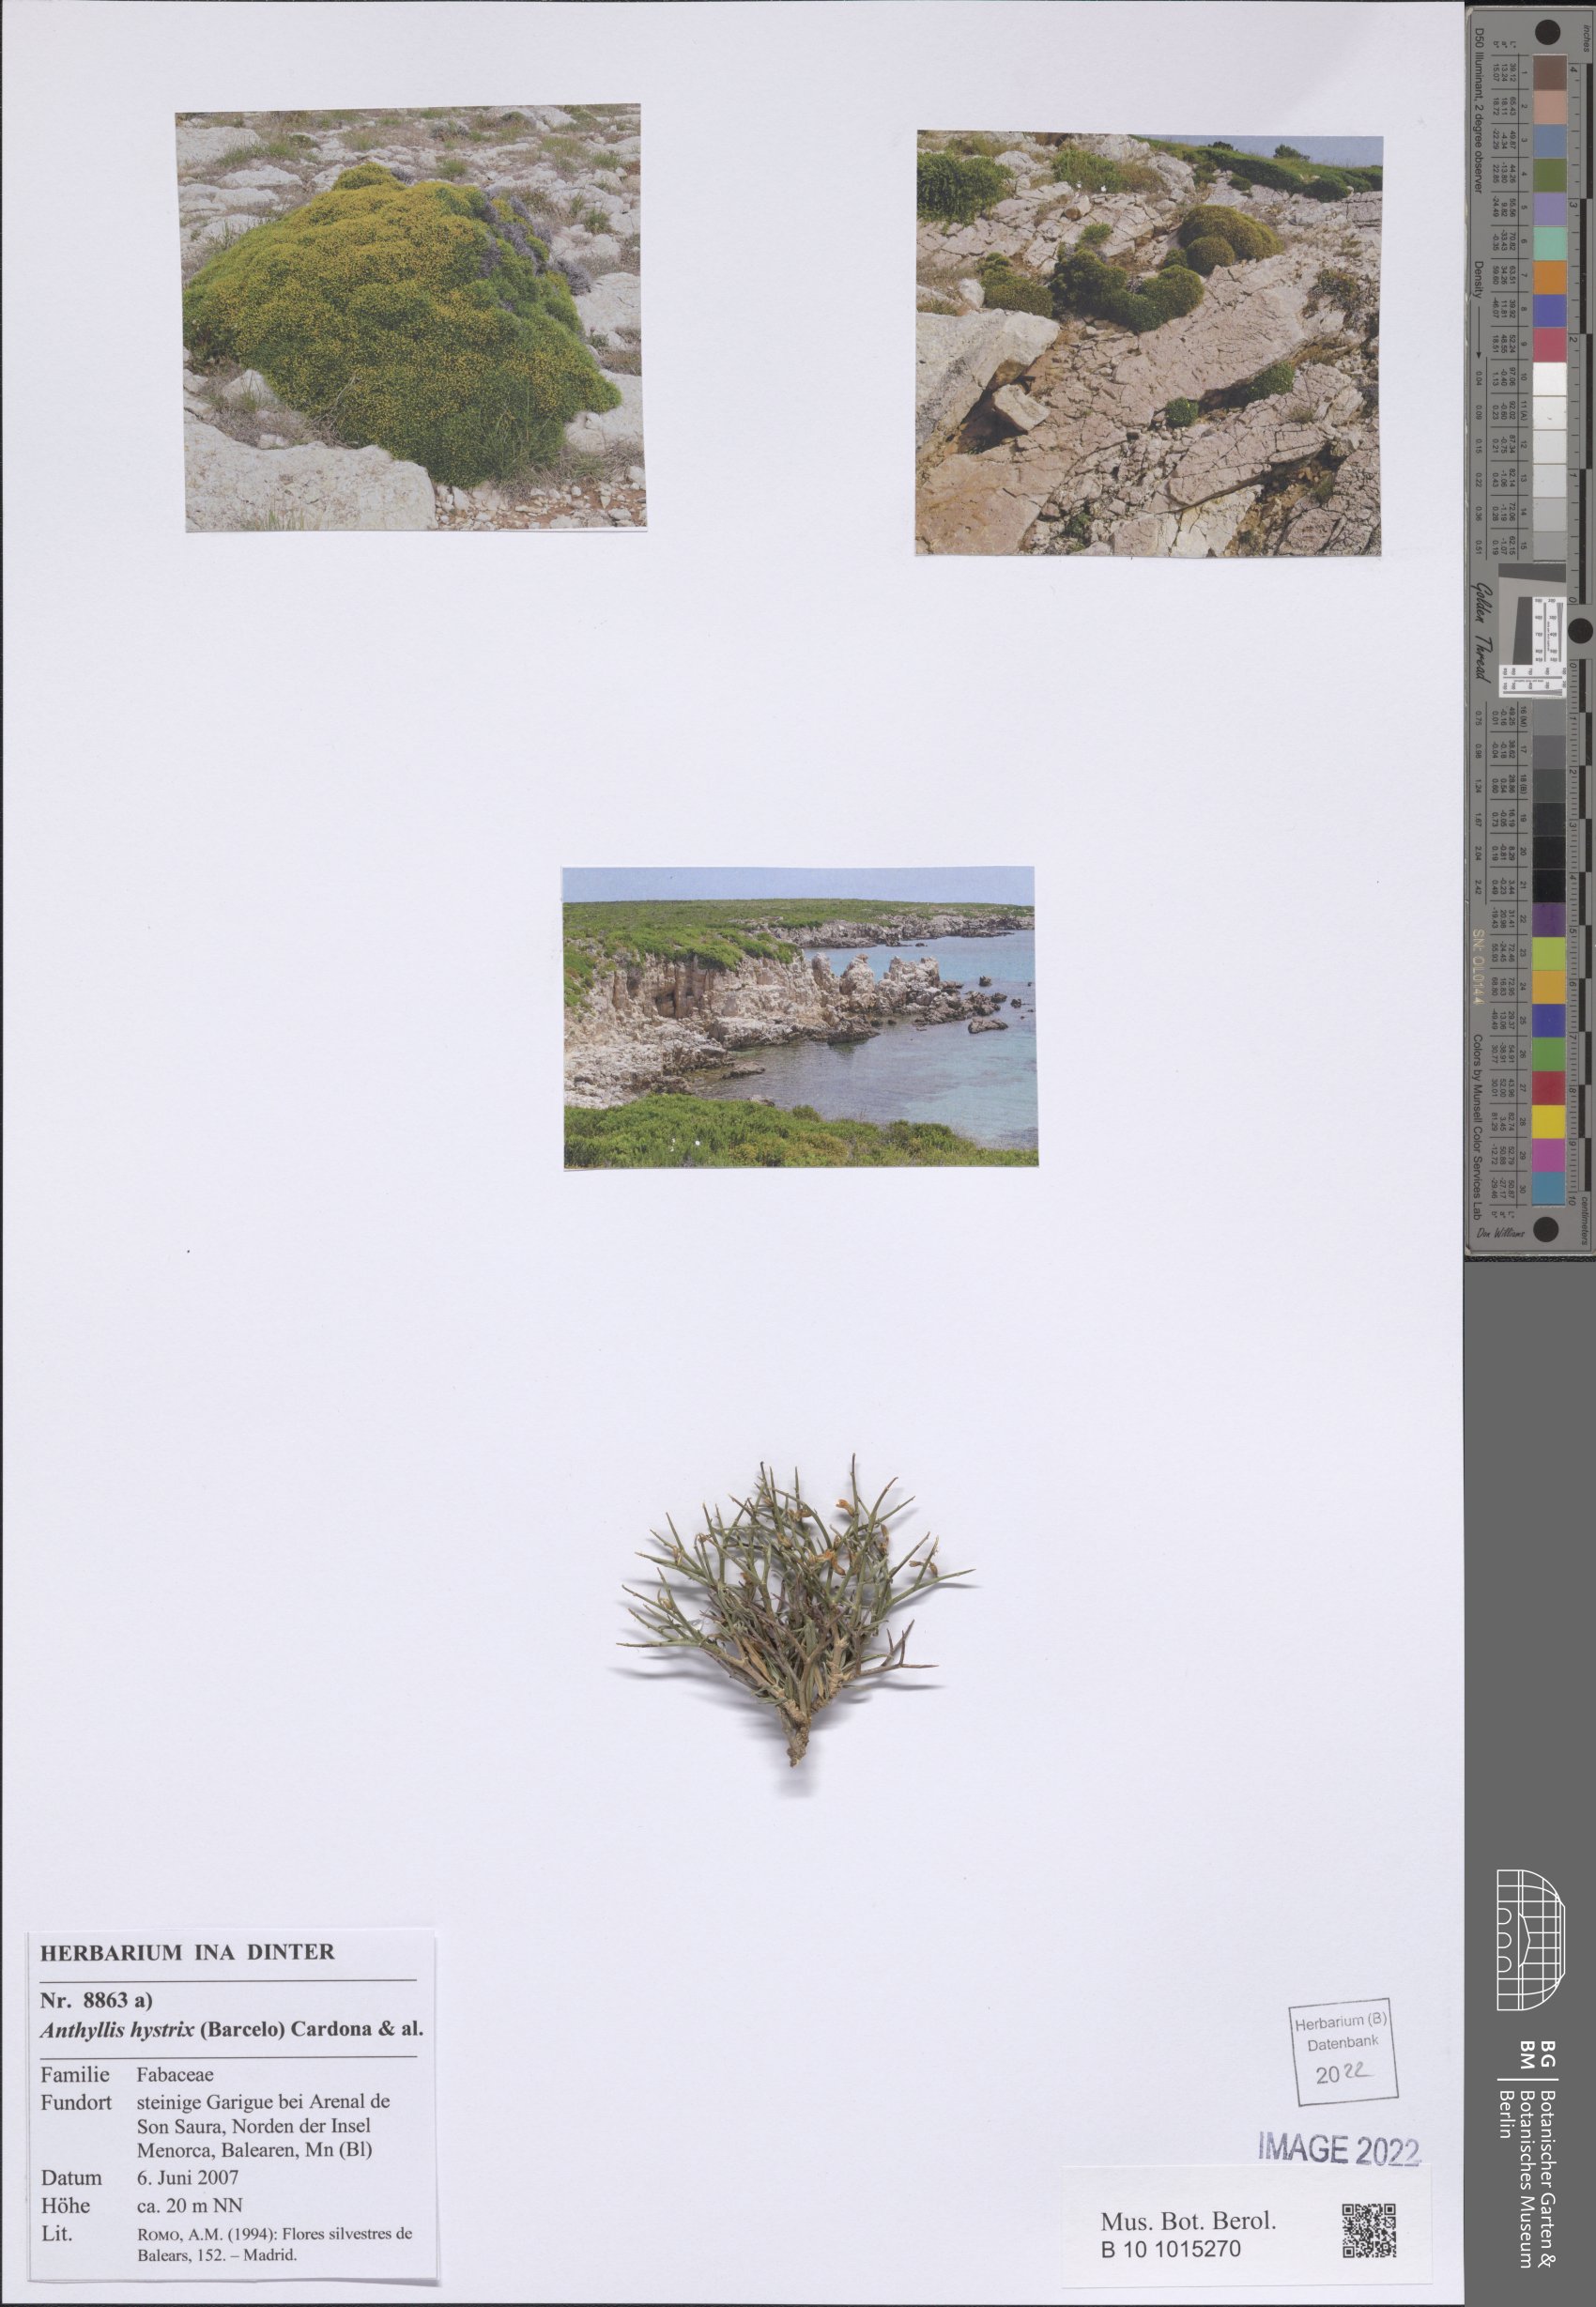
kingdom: Plantae
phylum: Tracheophyta
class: Magnoliopsida
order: Fabales
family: Fabaceae
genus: Anthyllis
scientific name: Anthyllis hystrix
